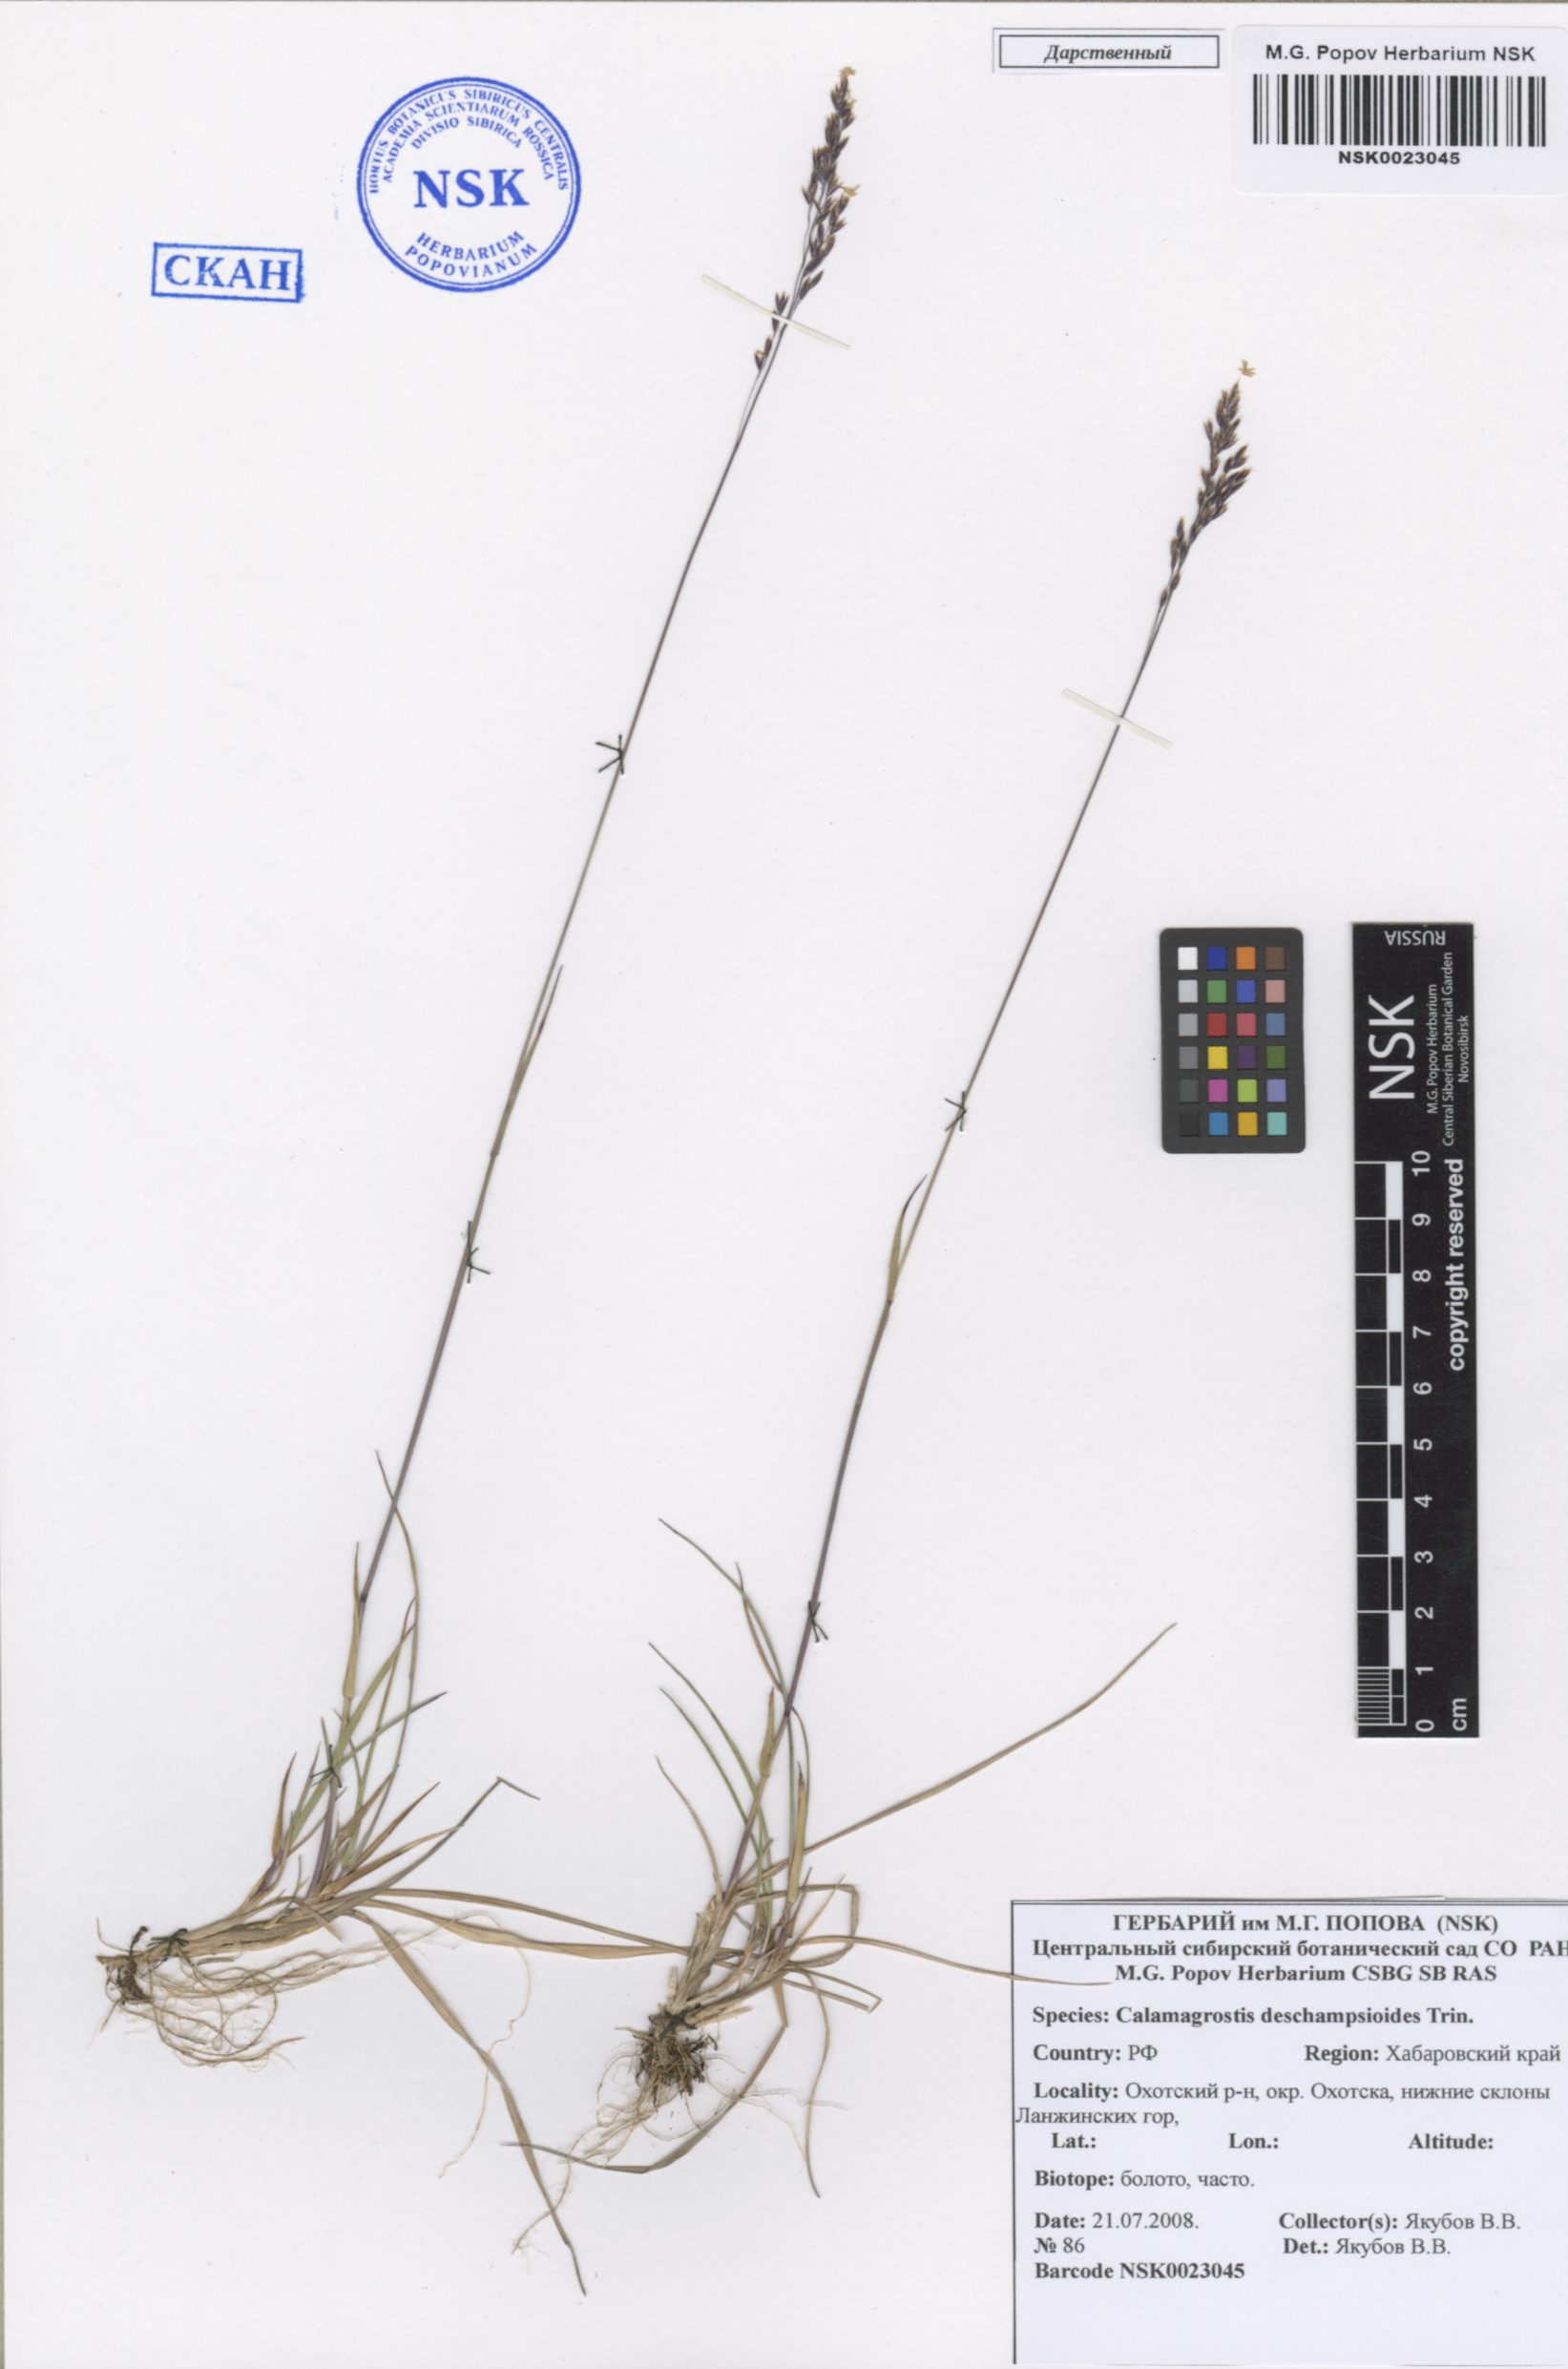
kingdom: Plantae
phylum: Tracheophyta
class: Liliopsida
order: Poales
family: Poaceae
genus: Calamagrostis
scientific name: Calamagrostis deschampsioides
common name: Circumpolar reedgrass
